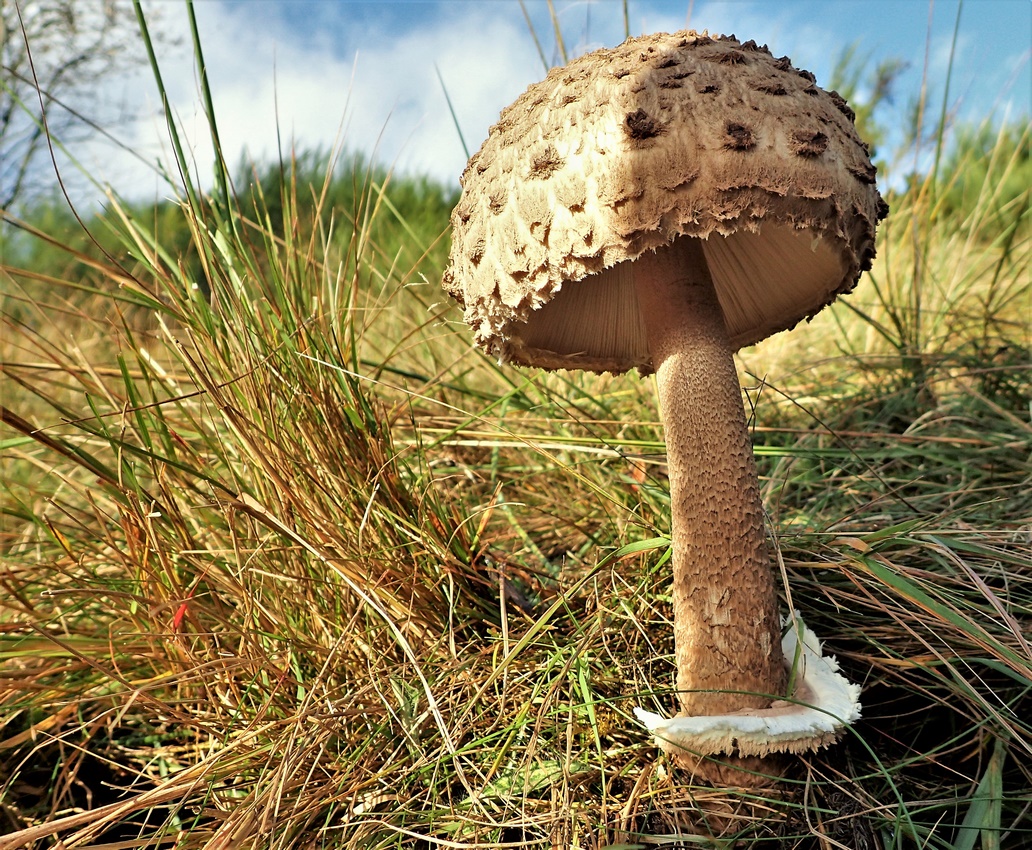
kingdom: Fungi
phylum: Basidiomycota
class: Agaricomycetes
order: Agaricales
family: Agaricaceae
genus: Macrolepiota
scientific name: Macrolepiota procera
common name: stor kæmpeparasolhat
